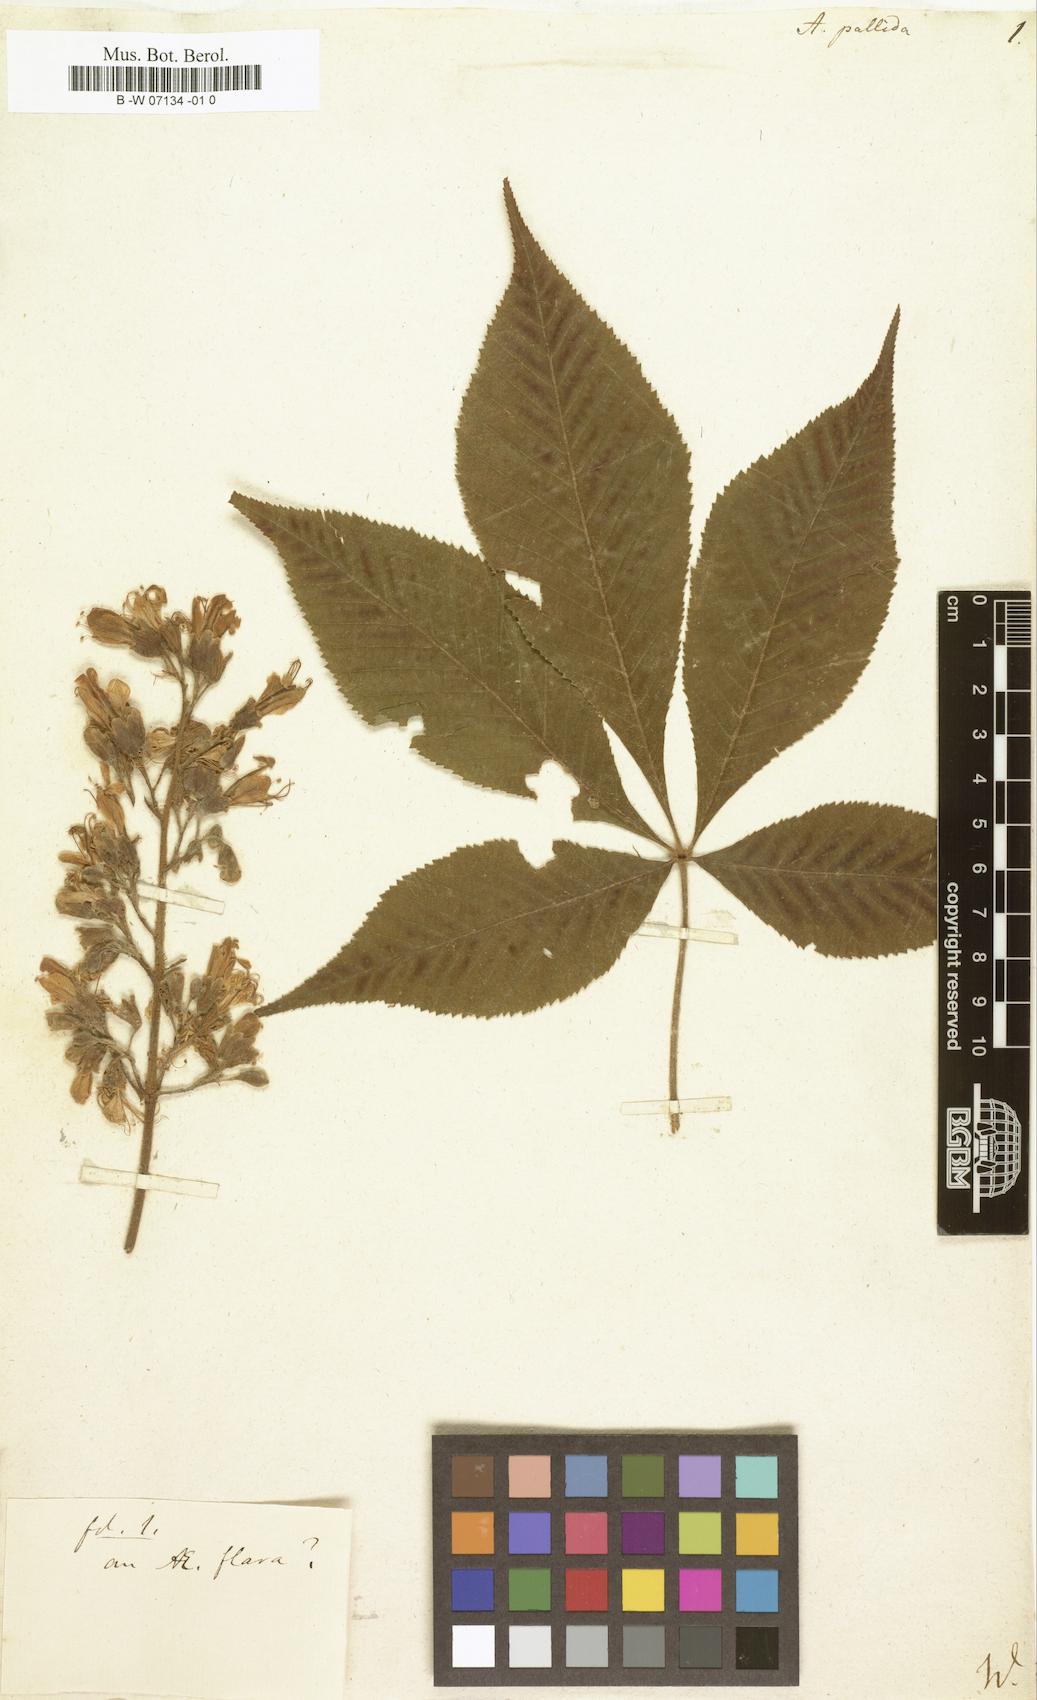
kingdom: Plantae
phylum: Tracheophyta
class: Magnoliopsida
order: Sapindales
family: Sapindaceae
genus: Aesculus
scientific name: Aesculus glabra
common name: Ohio buckeye
